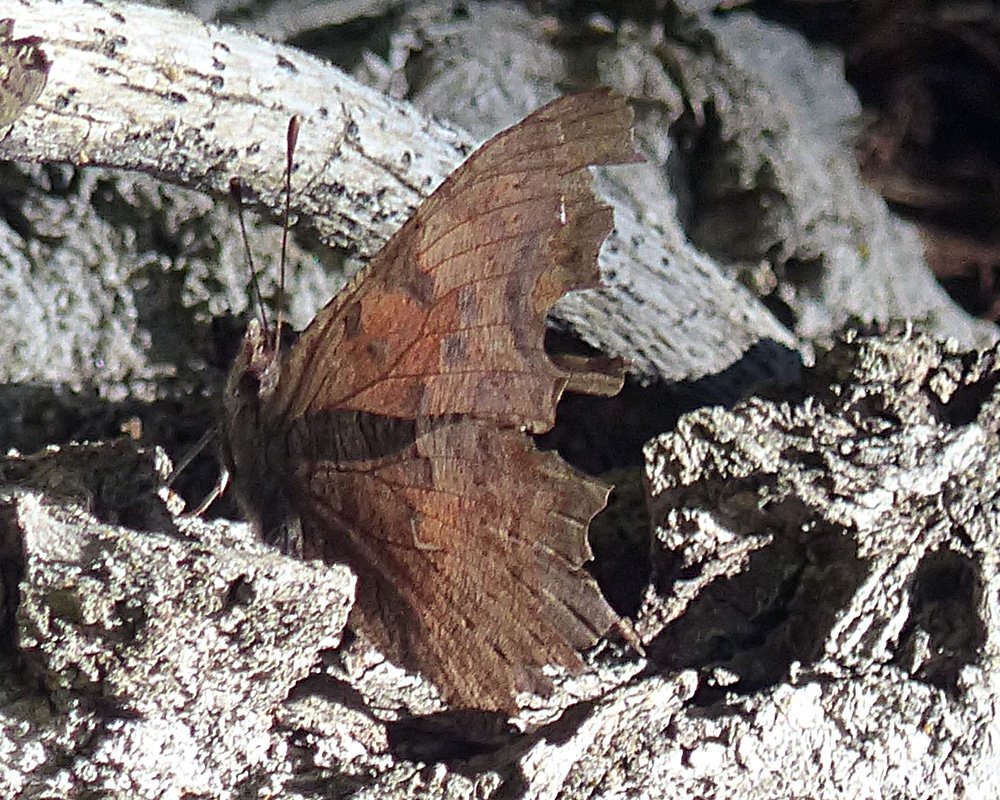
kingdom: Animalia
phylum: Arthropoda
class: Insecta
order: Lepidoptera
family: Nymphalidae
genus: Polygonia
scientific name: Polygonia satyrus
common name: Satyr Comma
